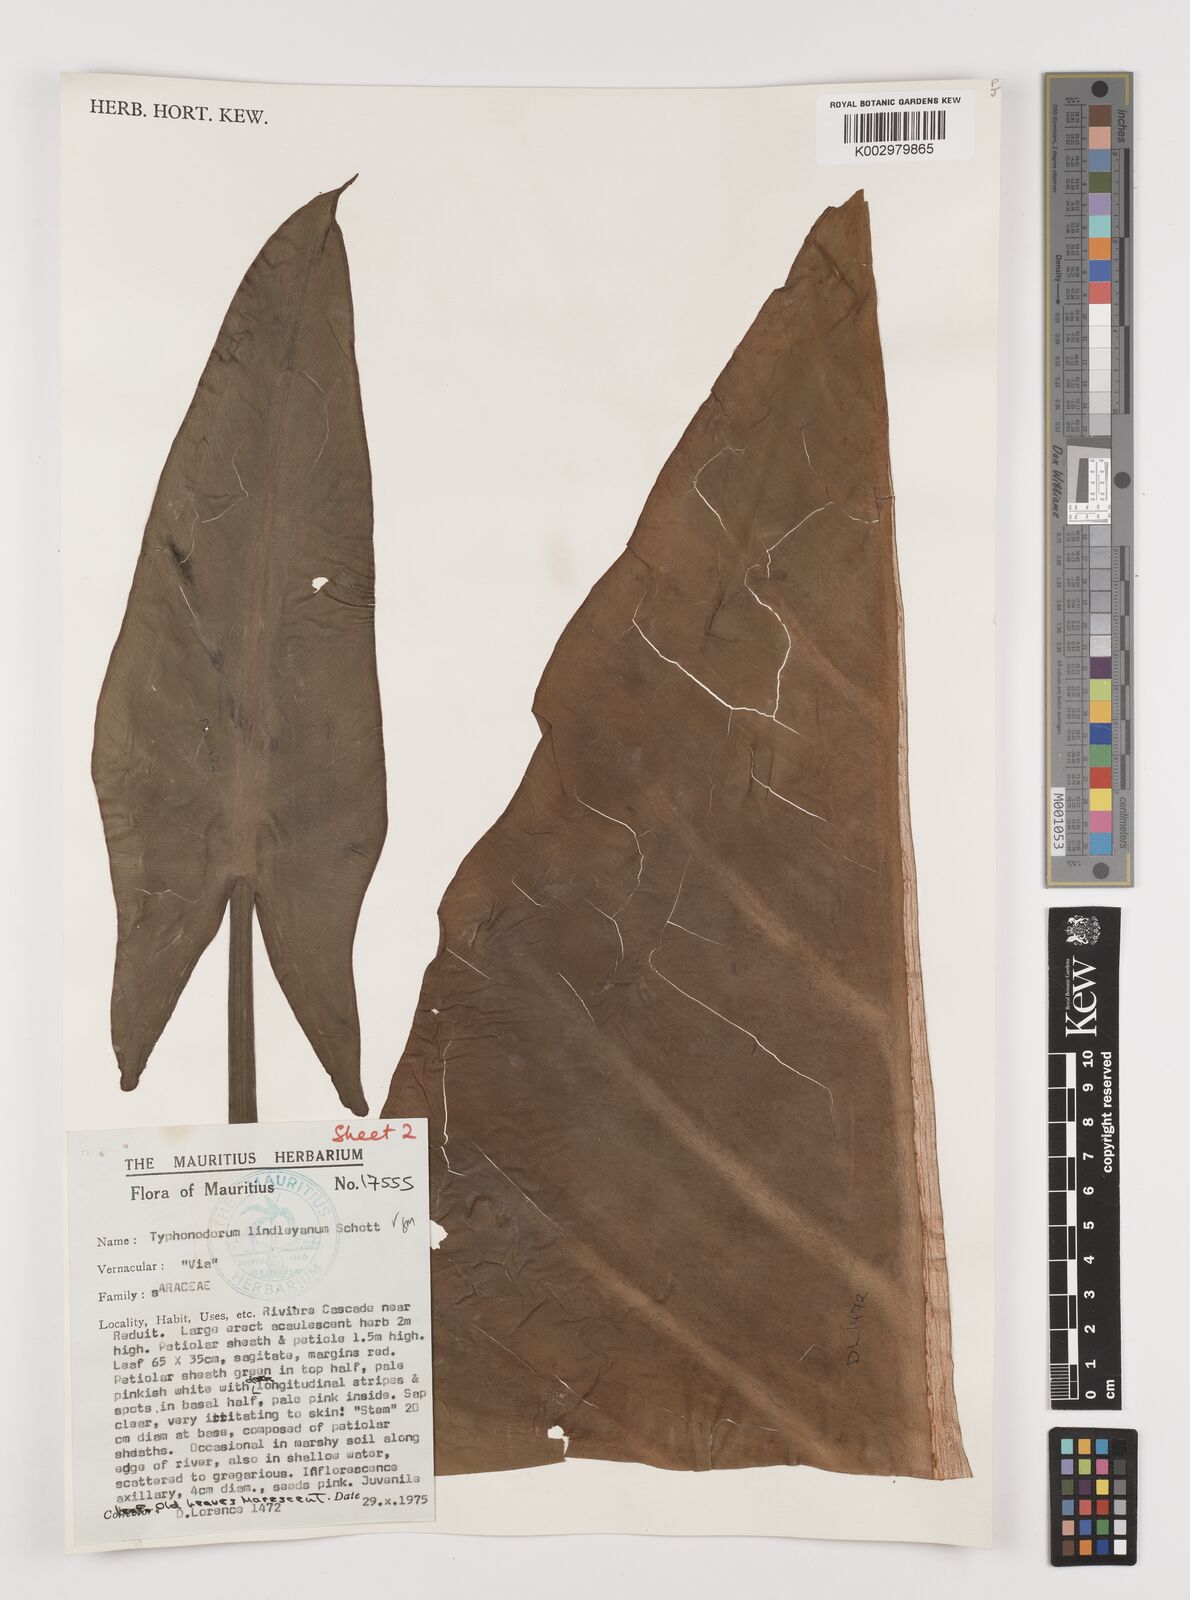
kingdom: Plantae
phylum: Tracheophyta
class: Liliopsida
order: Alismatales
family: Araceae
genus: Typhonodorum
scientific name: Typhonodorum lindleyanum
